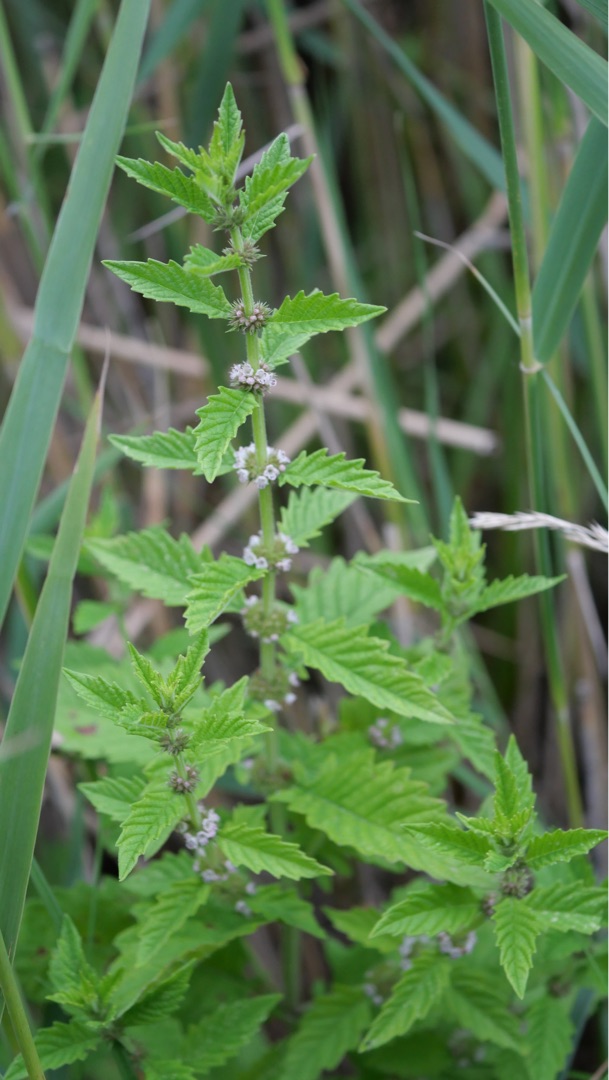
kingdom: Plantae
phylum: Tracheophyta
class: Magnoliopsida
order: Lamiales
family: Lamiaceae
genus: Lycopus
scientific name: Lycopus europaeus
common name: Sværtevæld
